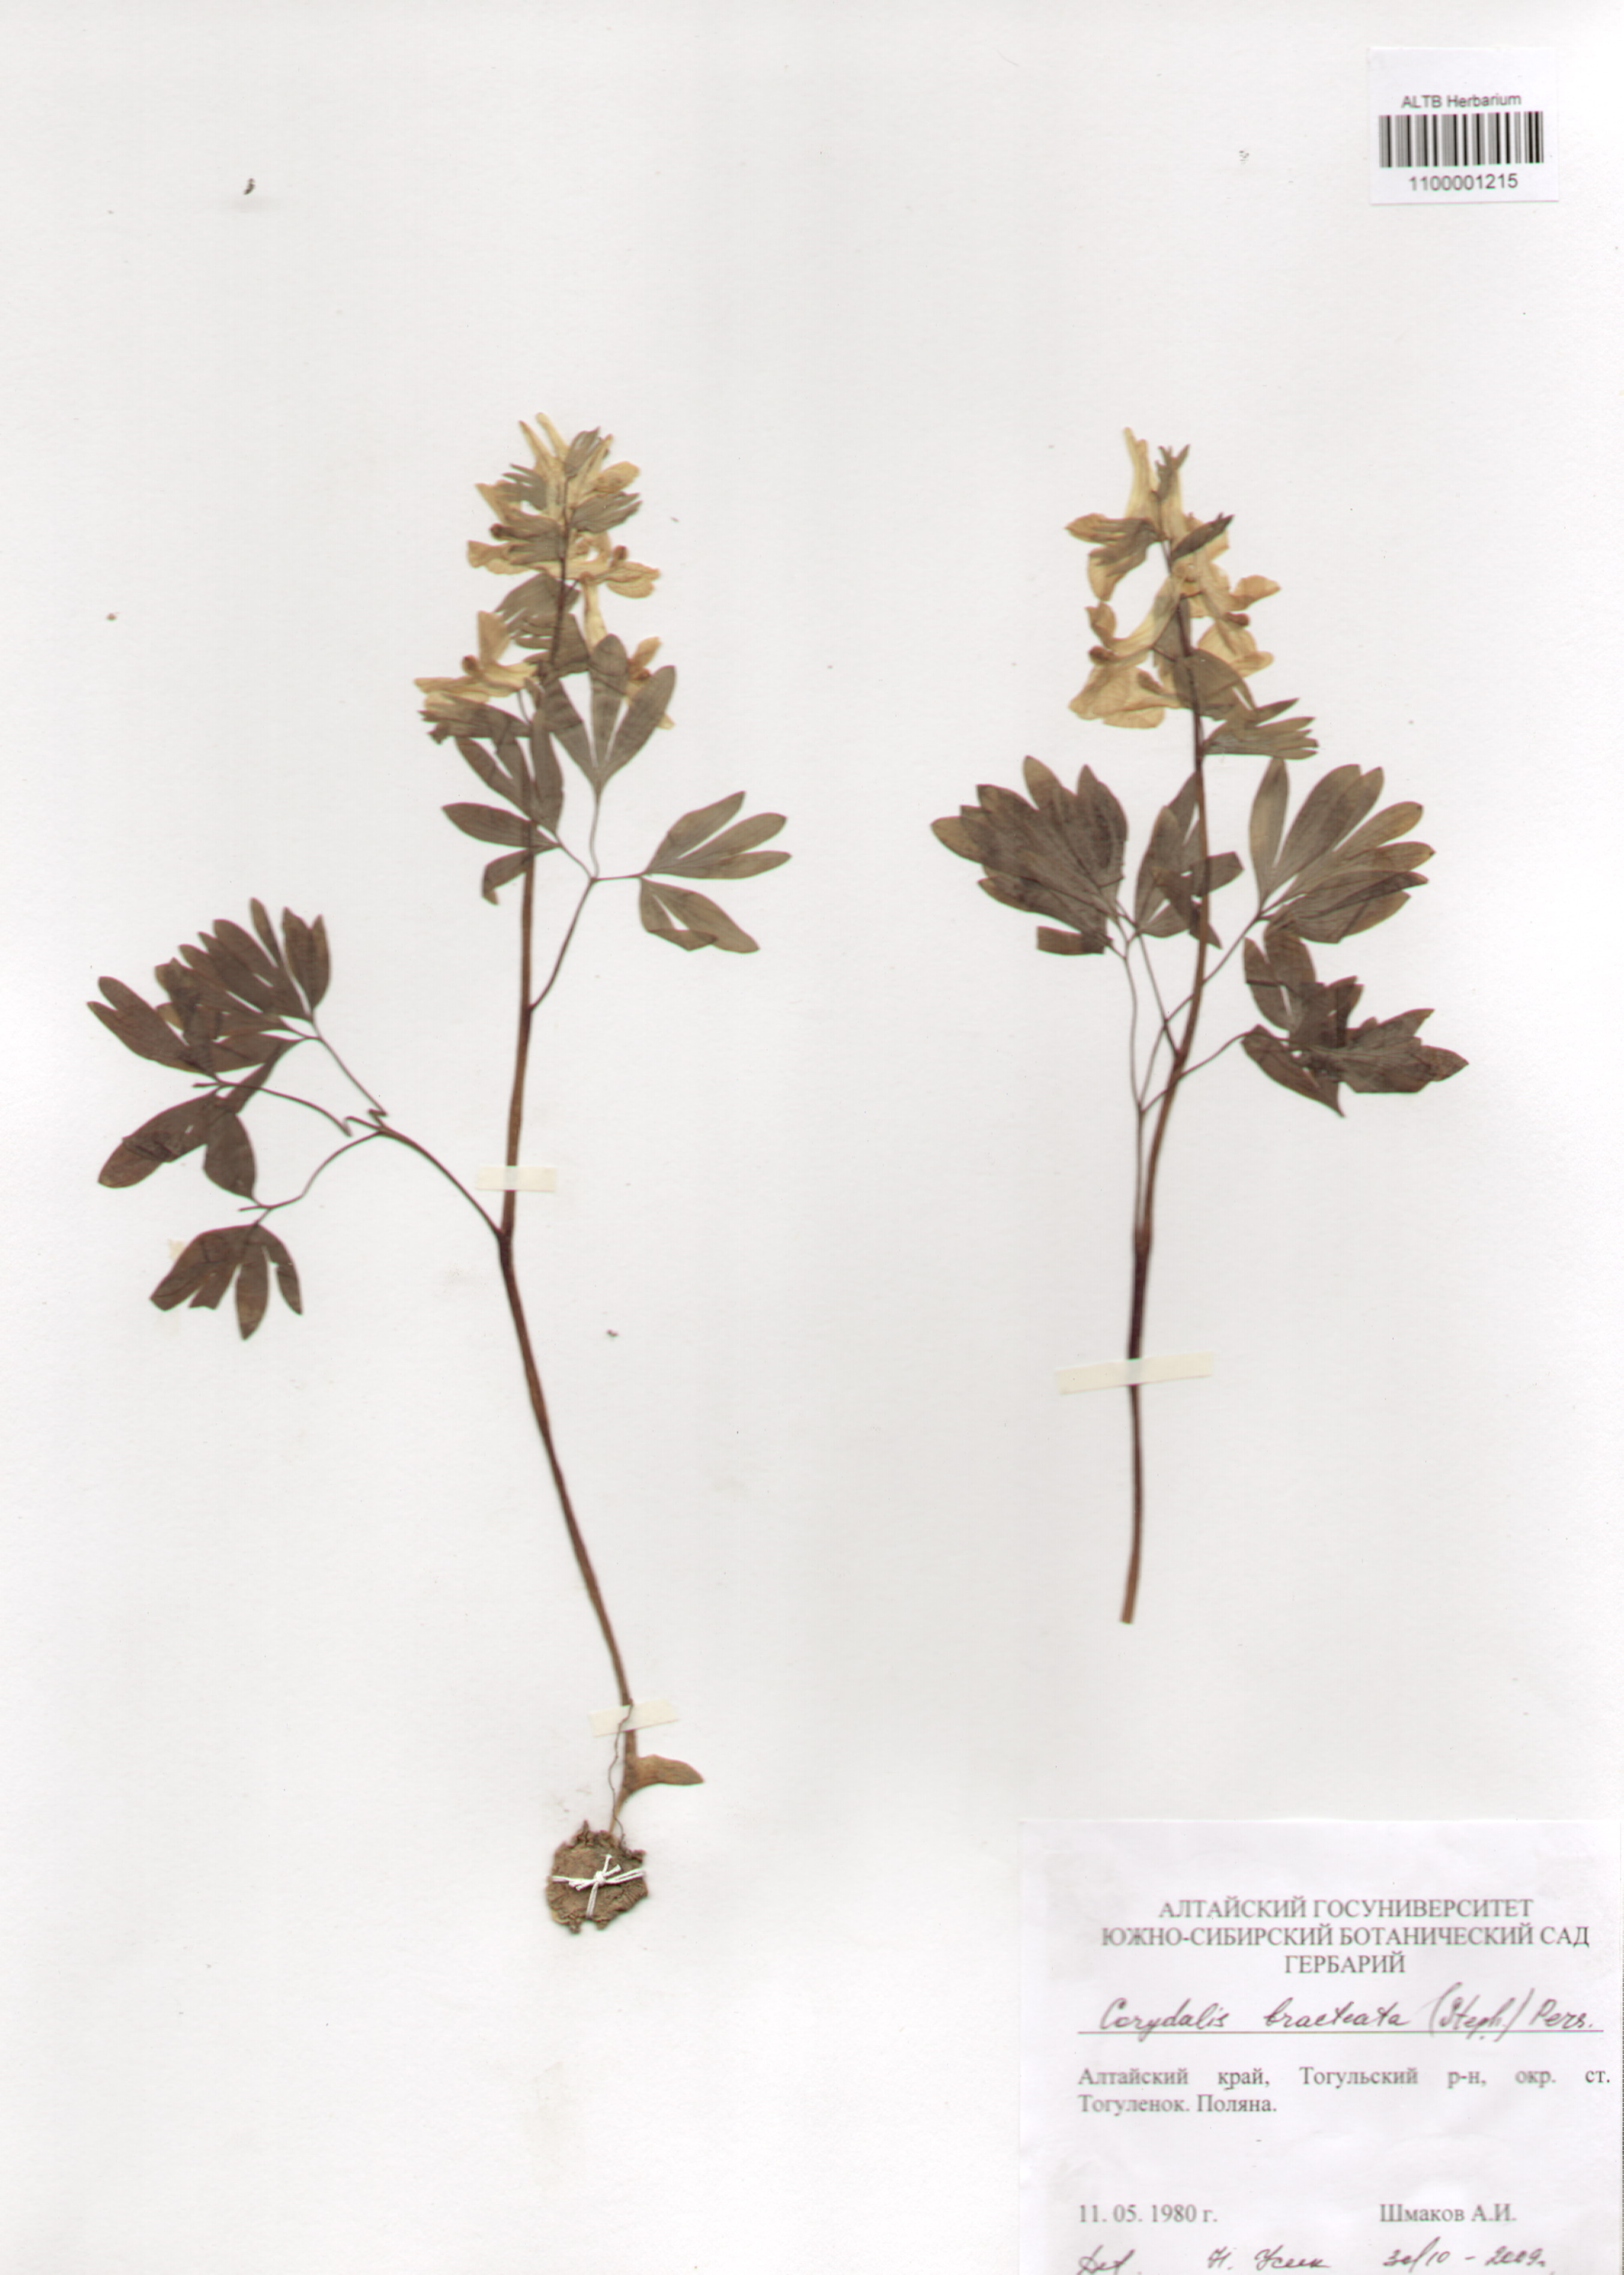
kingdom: Plantae
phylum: Tracheophyta
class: Magnoliopsida
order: Ranunculales
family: Papaveraceae
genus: Corydalis
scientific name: Corydalis bracteata
